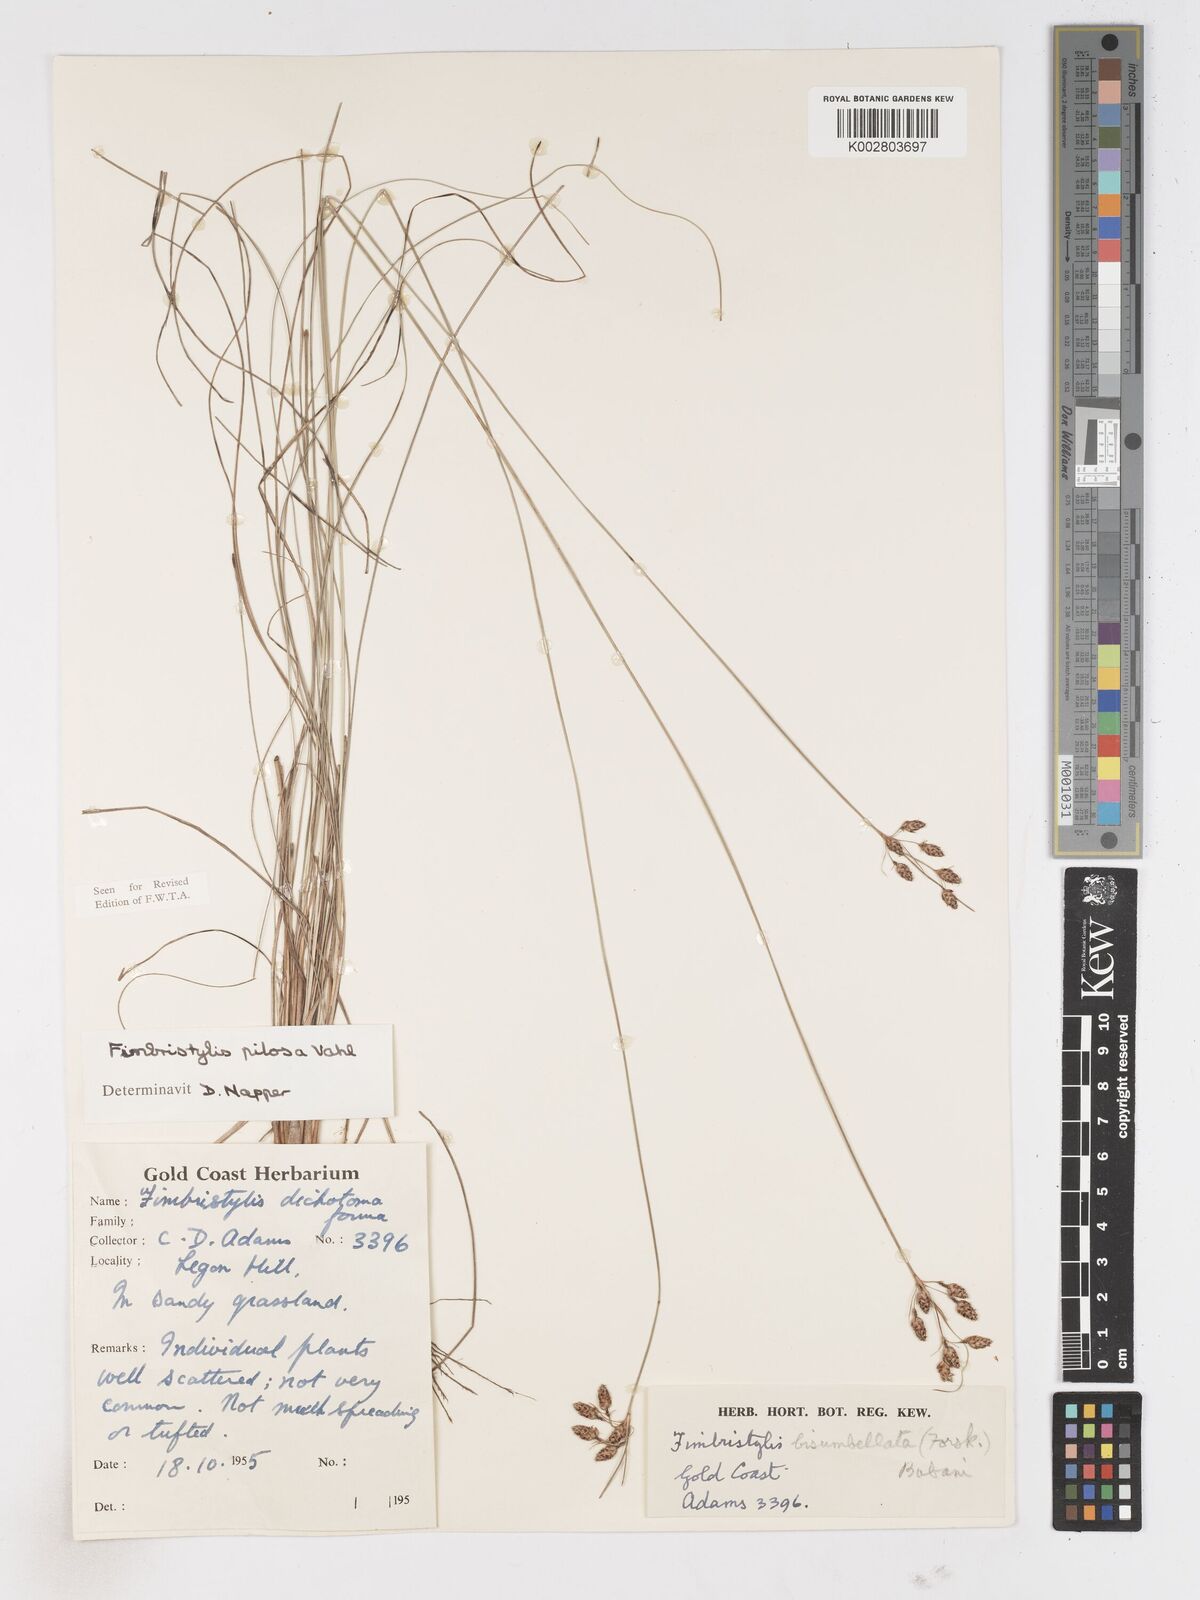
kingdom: Plantae
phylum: Tracheophyta
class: Liliopsida
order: Poales
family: Cyperaceae
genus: Fimbristylis
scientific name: Fimbristylis pilosa
